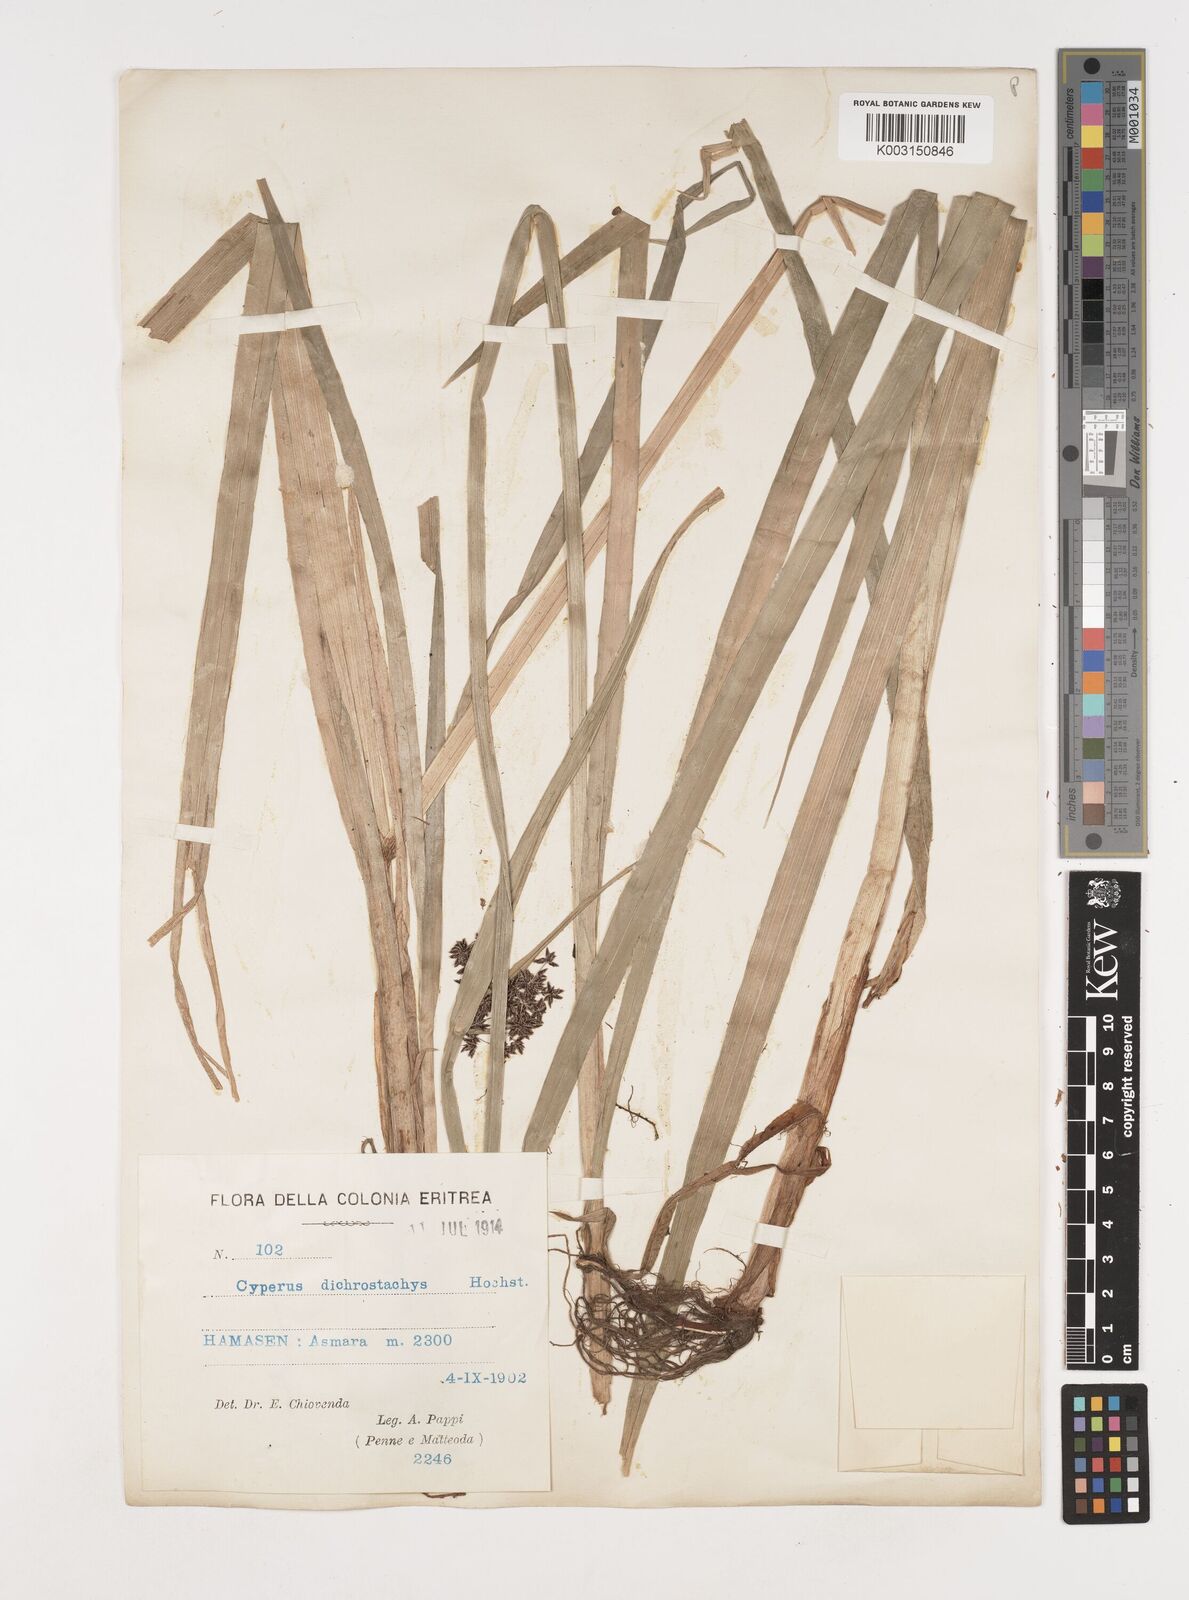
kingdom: Plantae
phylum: Tracheophyta
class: Liliopsida
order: Poales
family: Cyperaceae
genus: Cyperus
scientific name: Cyperus dichrostachyus
